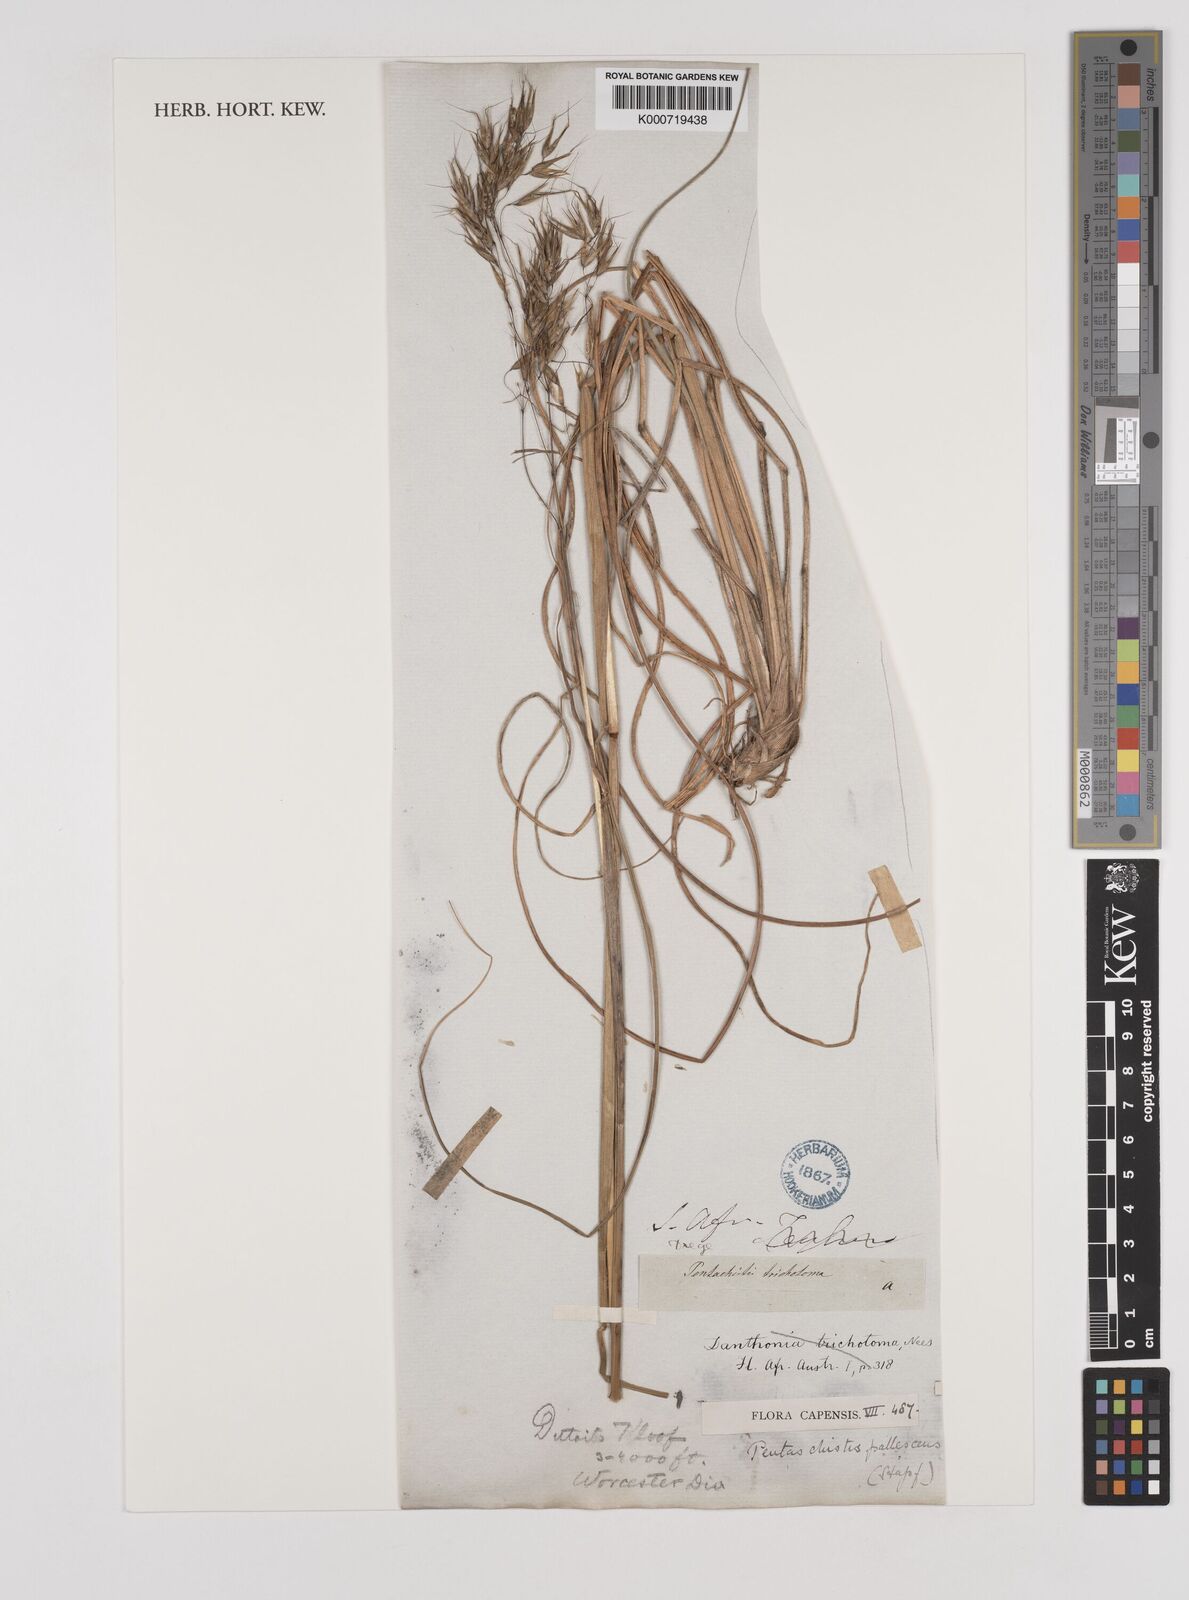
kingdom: Plantae
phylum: Tracheophyta
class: Liliopsida
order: Poales
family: Poaceae
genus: Pentameris
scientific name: Pentameris pallescens
